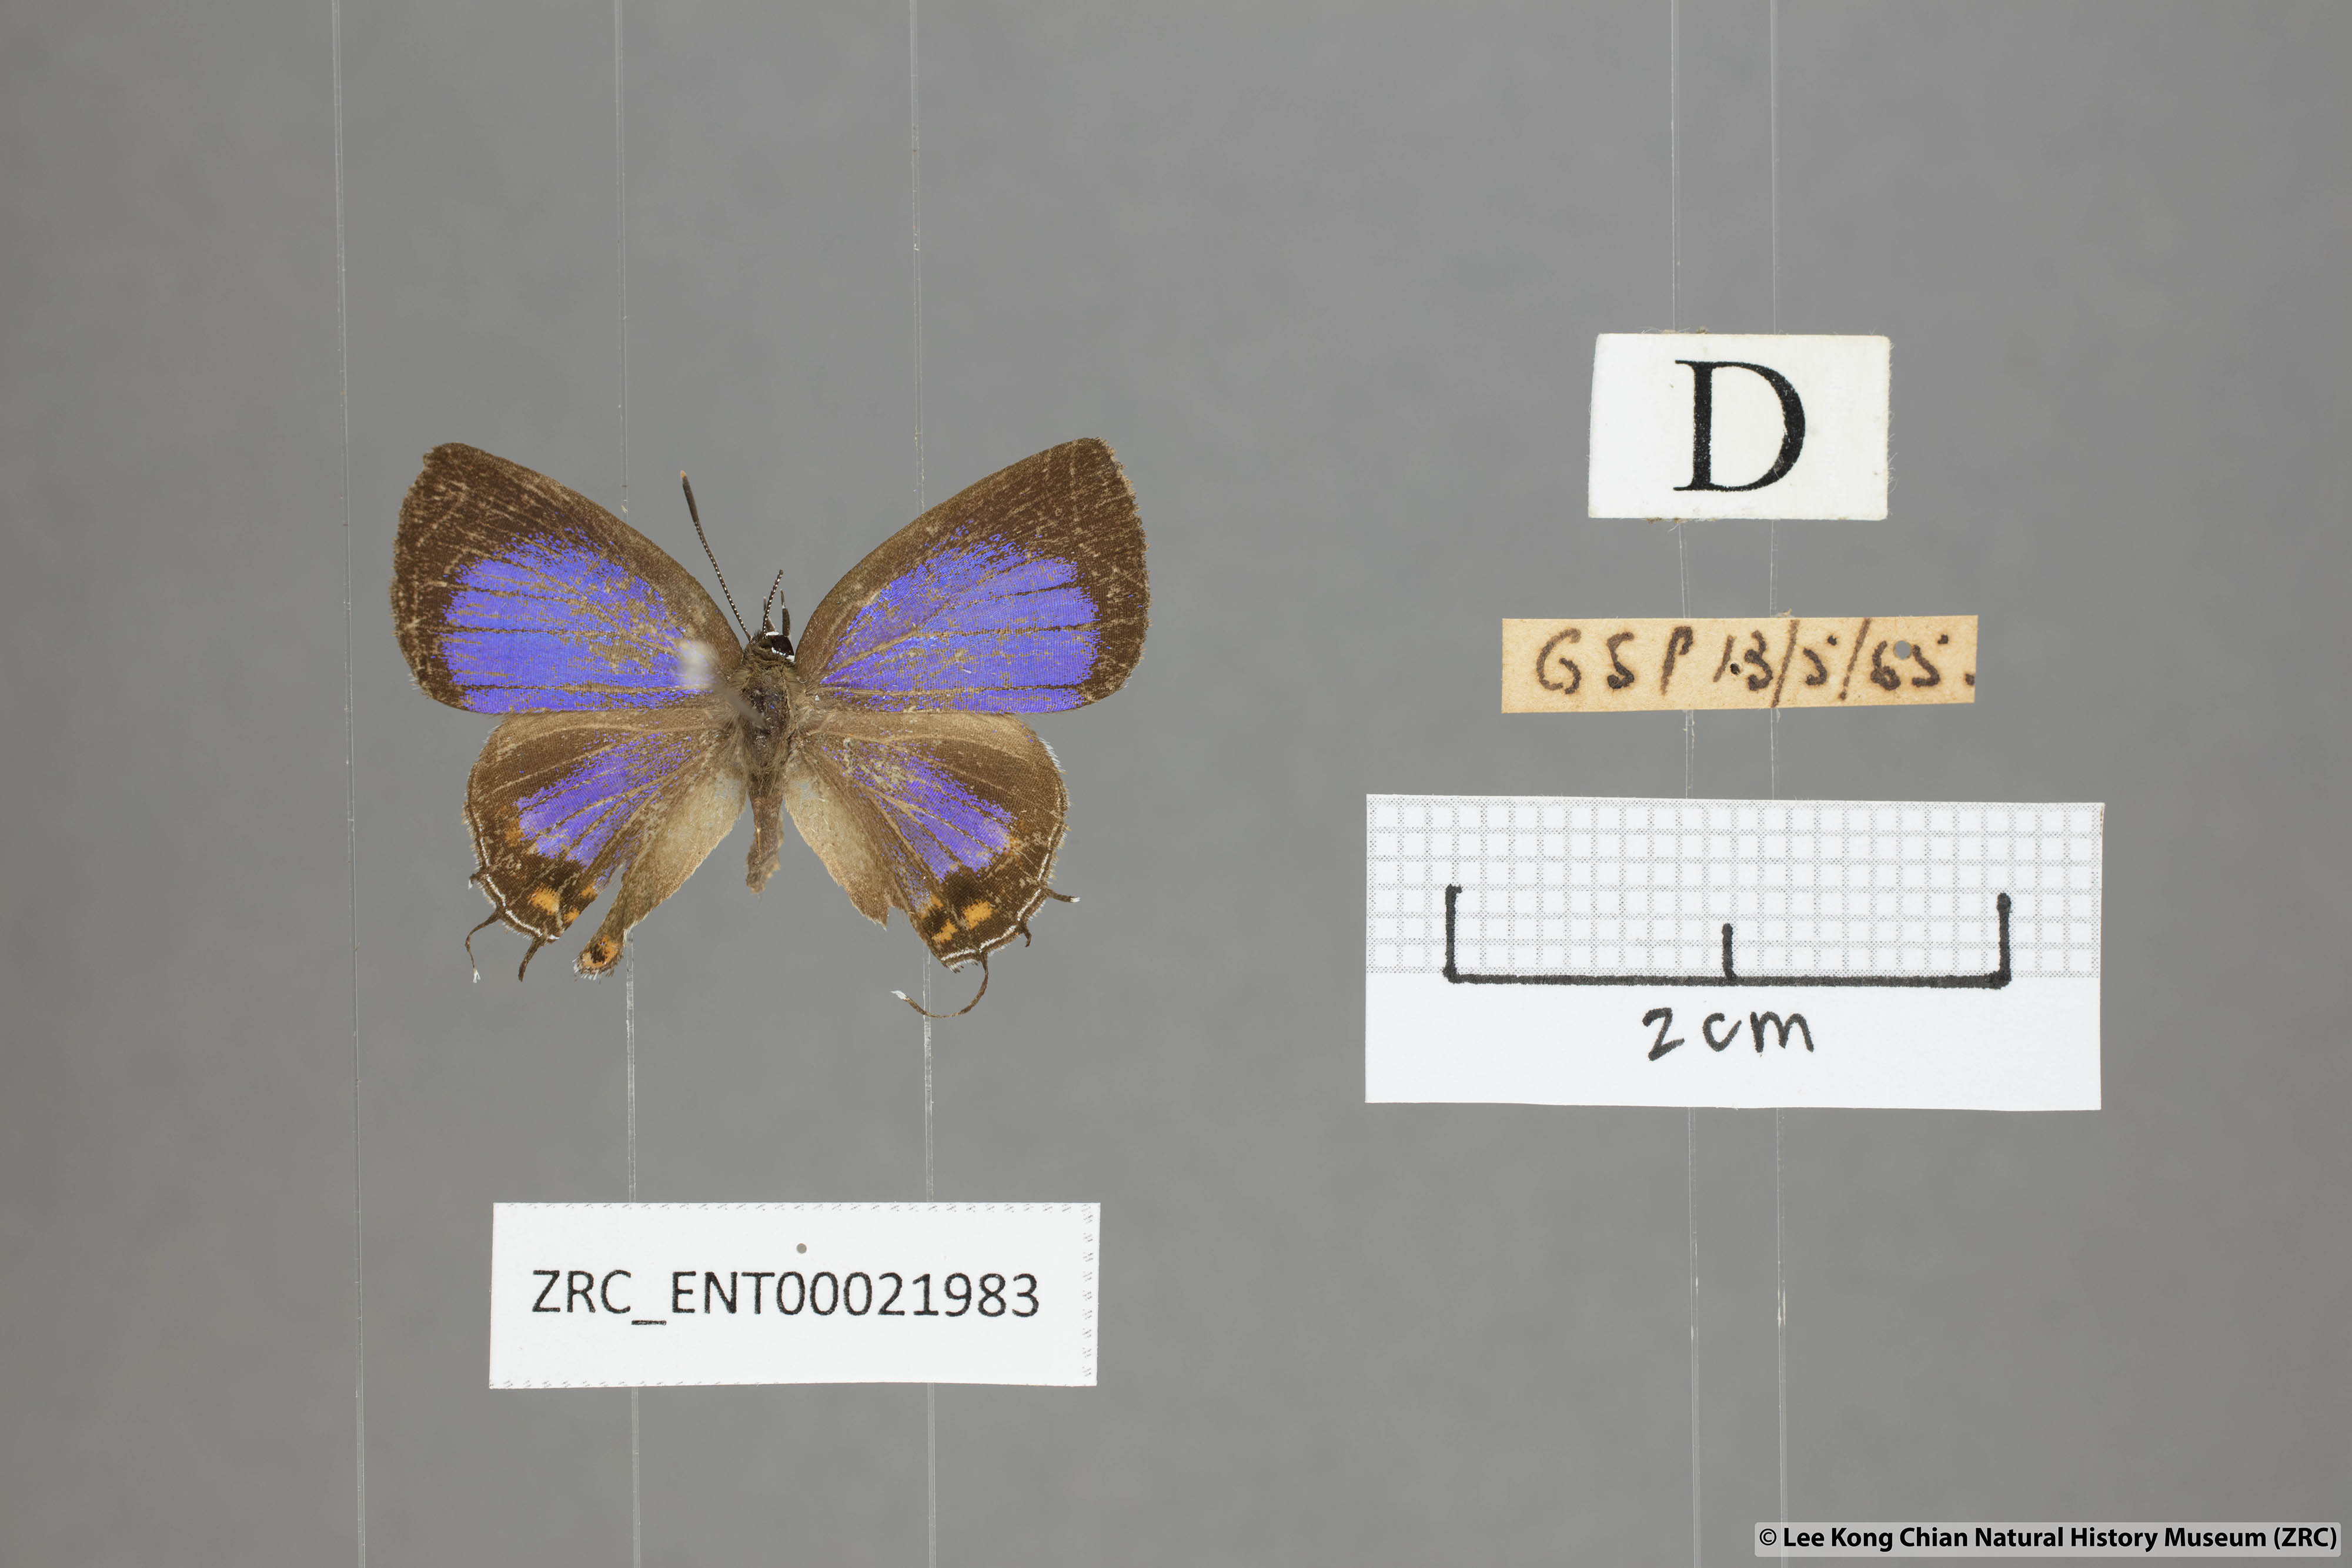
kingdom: Animalia
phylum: Arthropoda
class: Insecta
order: Lepidoptera
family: Lycaenidae
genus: Semanga
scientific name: Semanga superba
